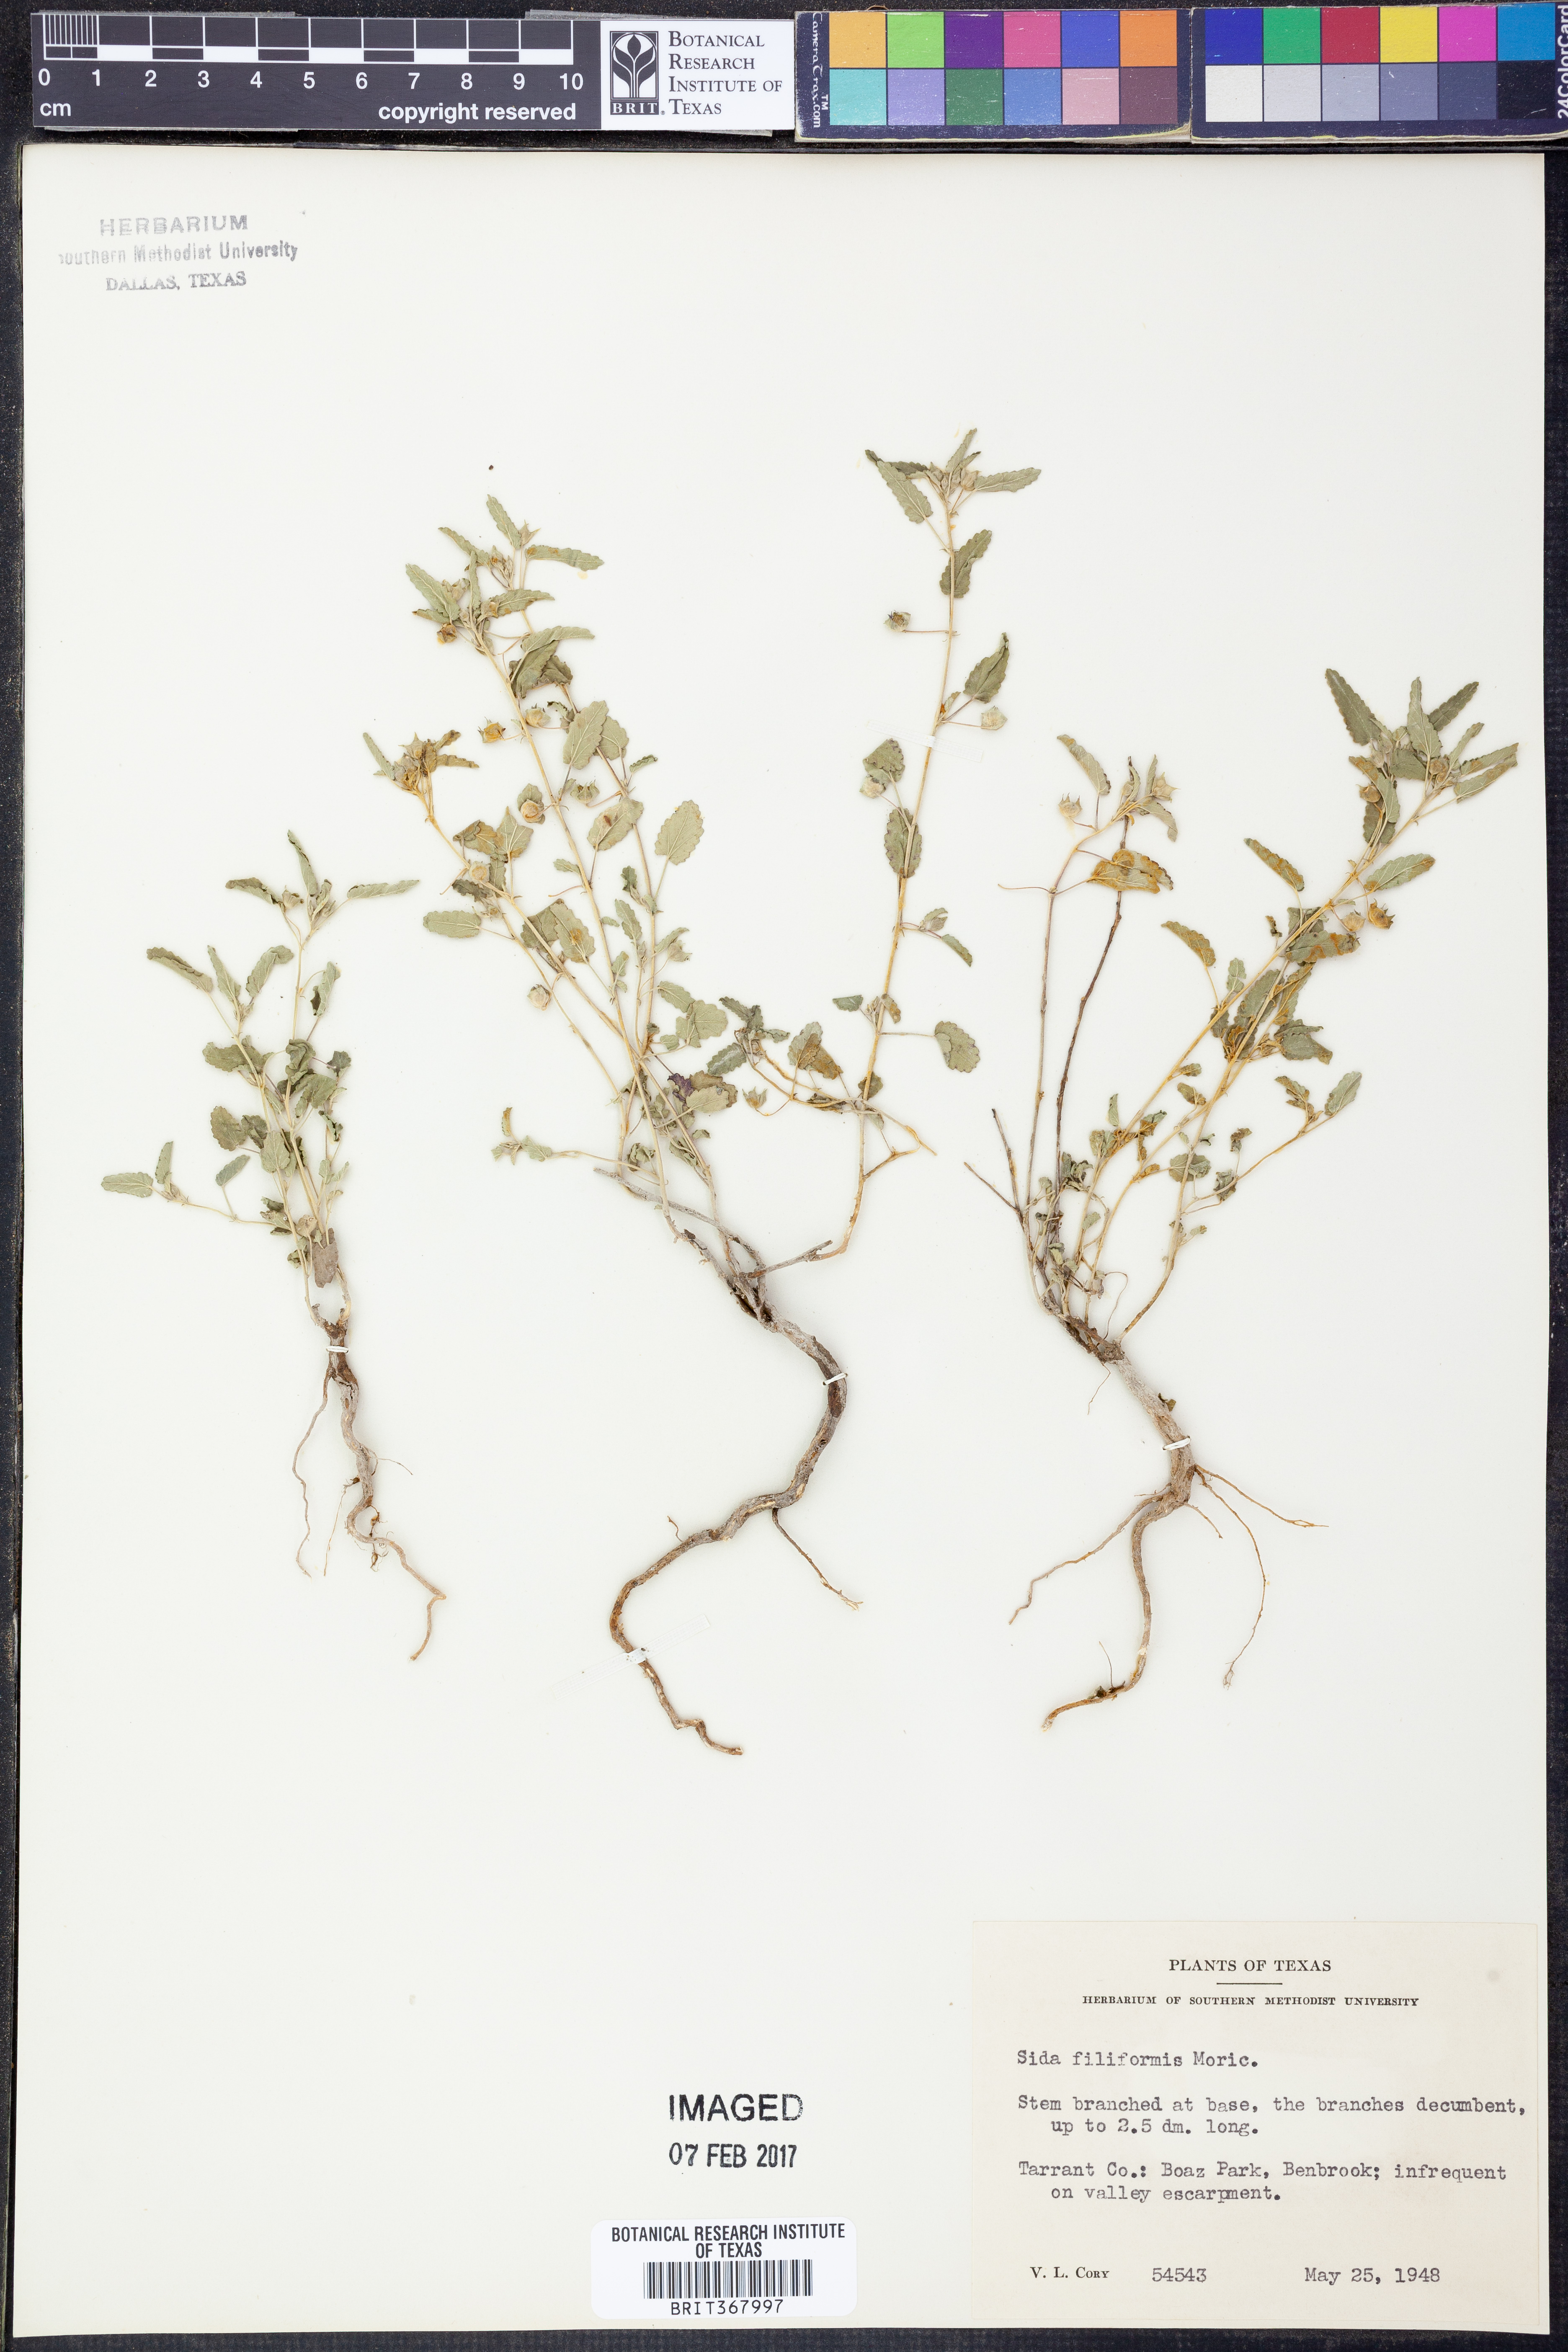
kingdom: Plantae
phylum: Tracheophyta
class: Magnoliopsida
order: Malvales
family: Malvaceae
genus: Sida
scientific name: Sida abutilifolia
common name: Spreading fanpetals
